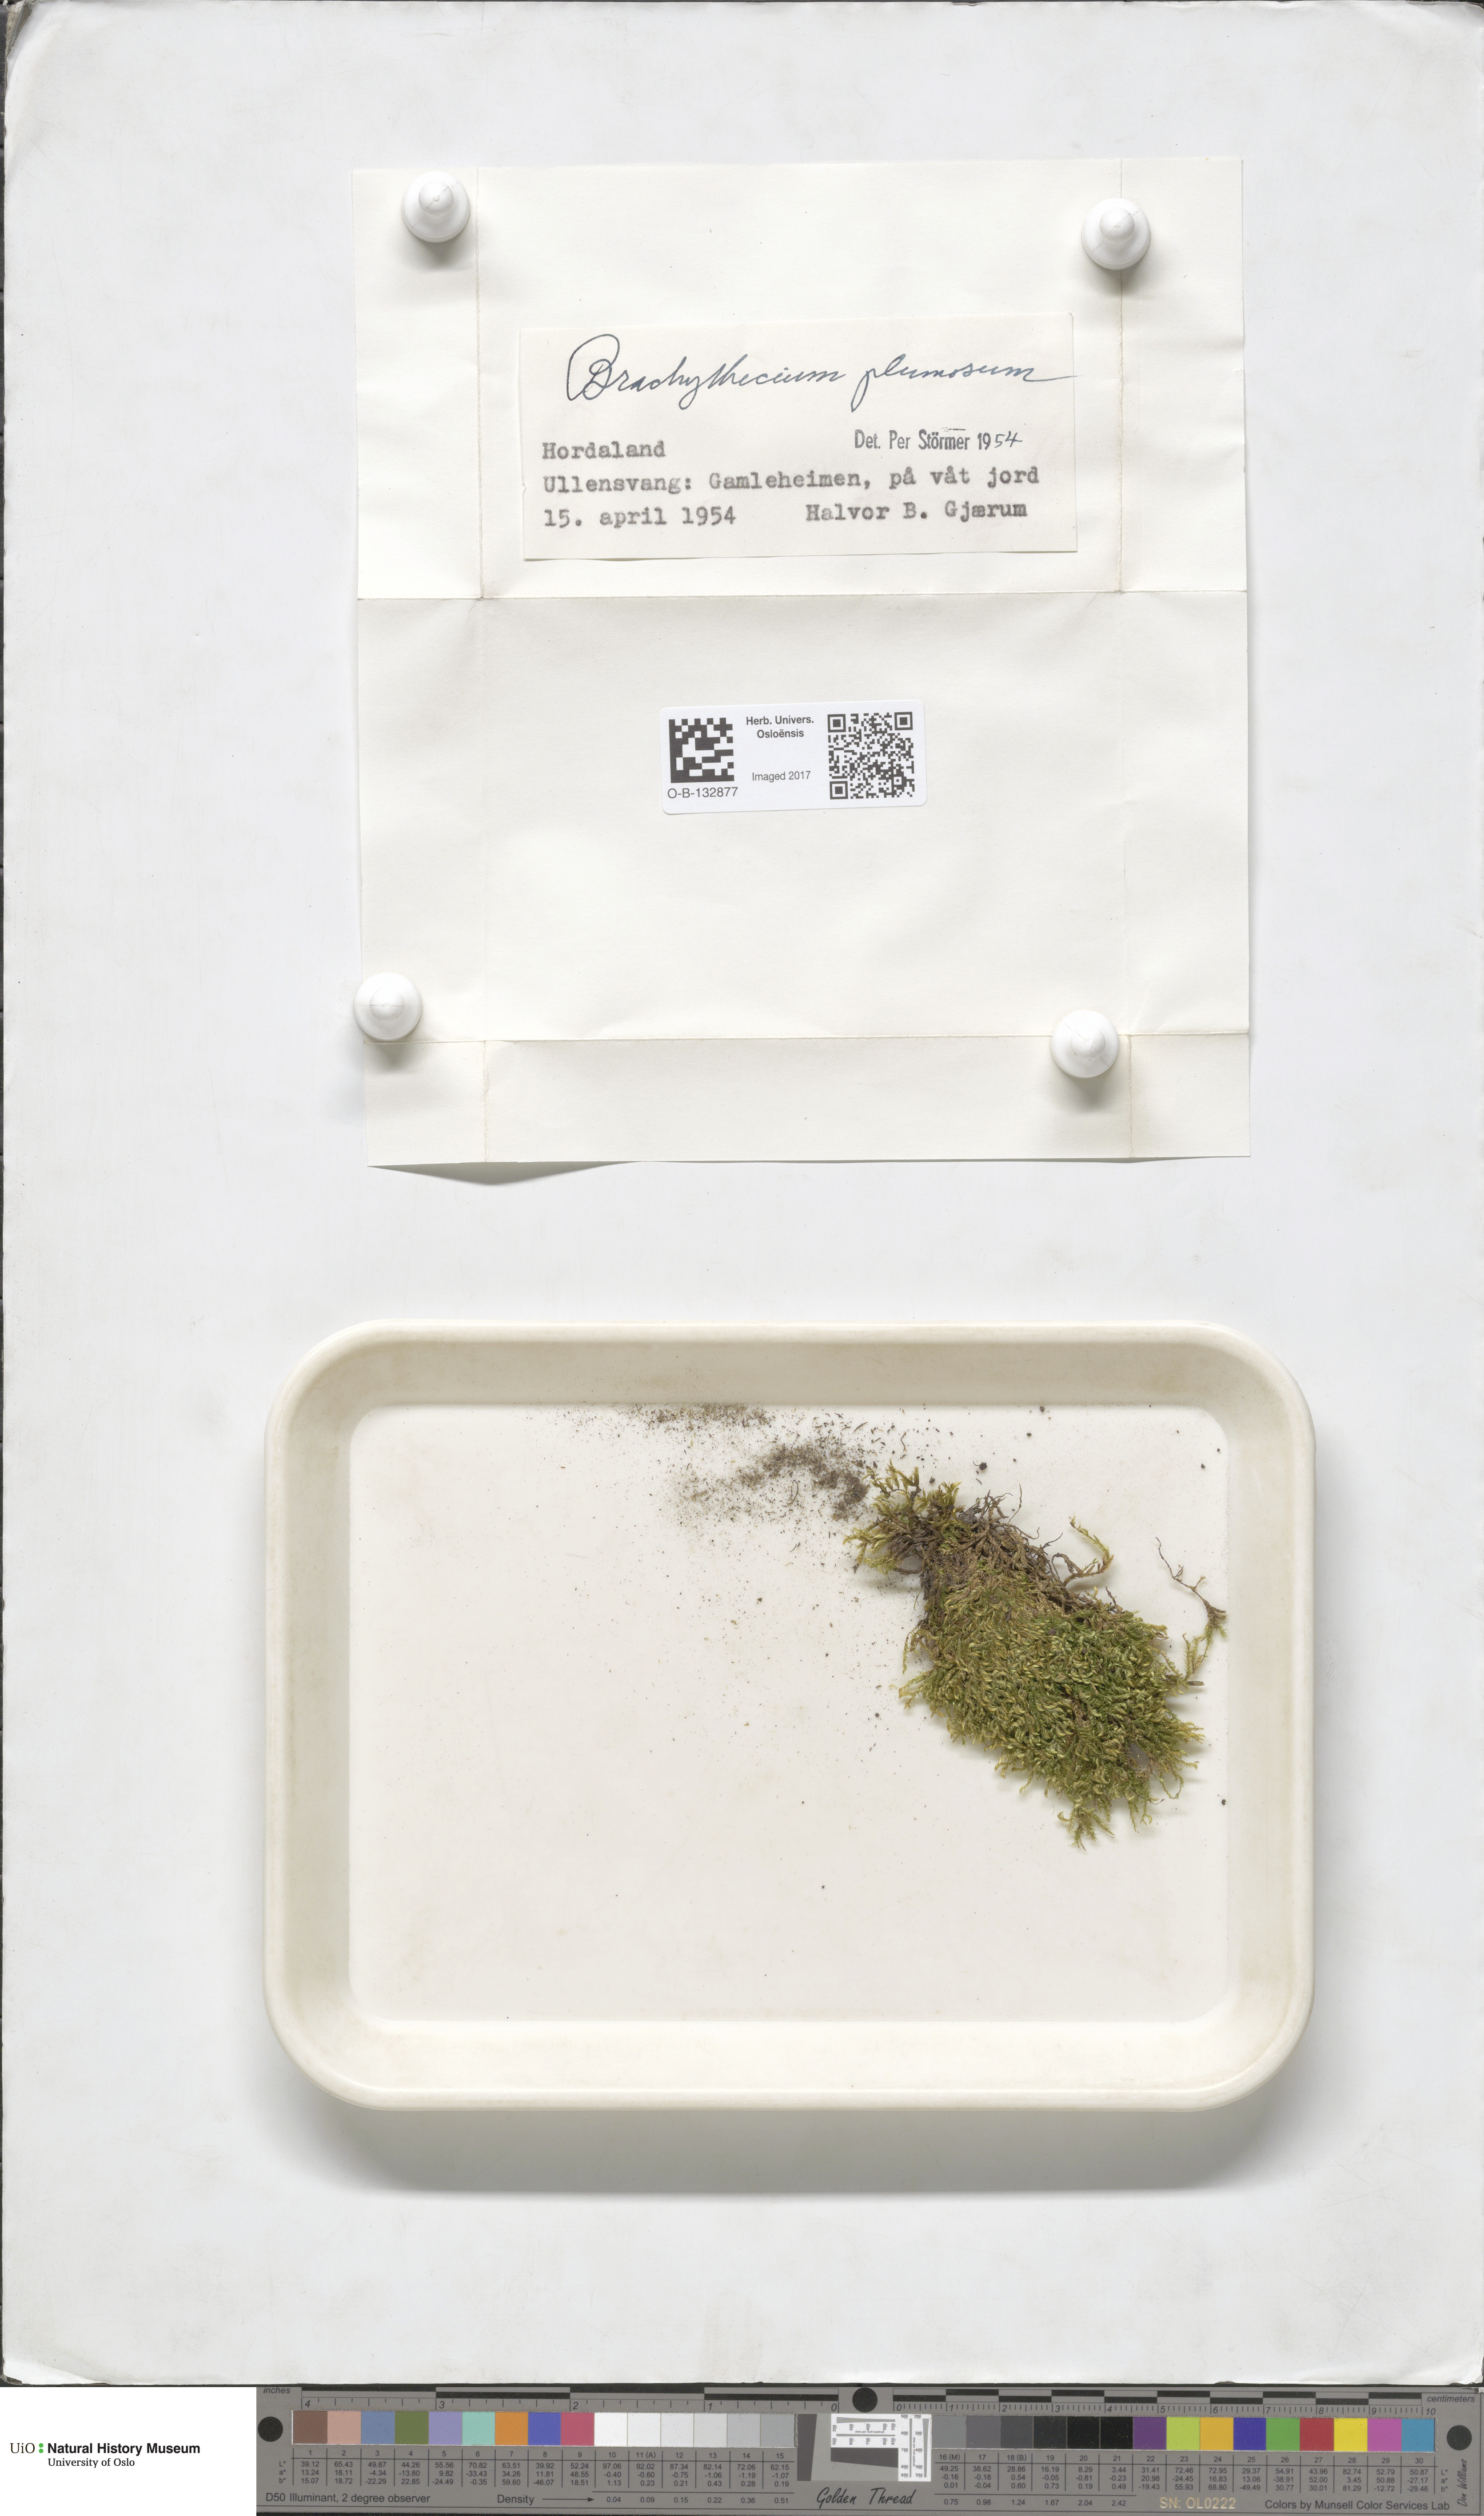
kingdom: Plantae
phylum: Bryophyta
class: Bryopsida
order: Hypnales
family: Brachytheciaceae
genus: Sciuro-hypnum
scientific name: Sciuro-hypnum plumosum
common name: Rusty feather-moss
